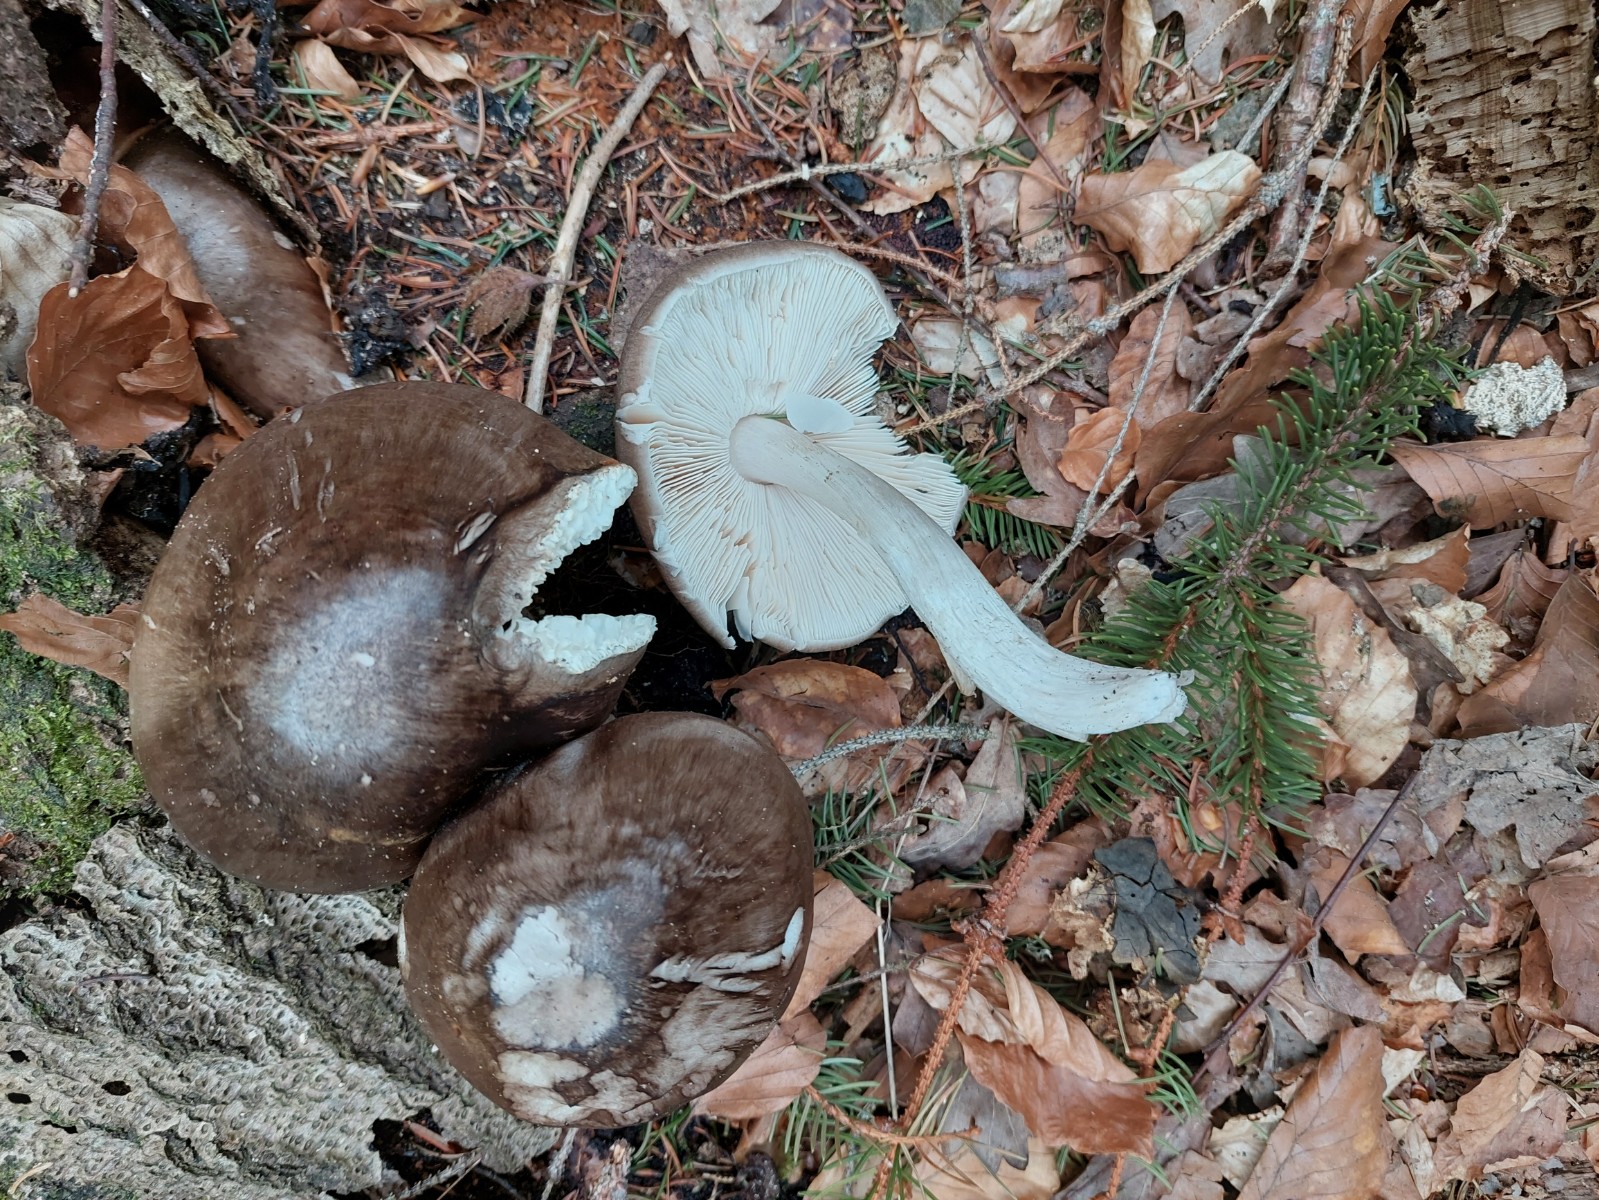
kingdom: Fungi
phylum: Basidiomycota
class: Agaricomycetes
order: Agaricales
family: Pluteaceae
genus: Pluteus
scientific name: Pluteus cervinus
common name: sodfarvet skærmhat
